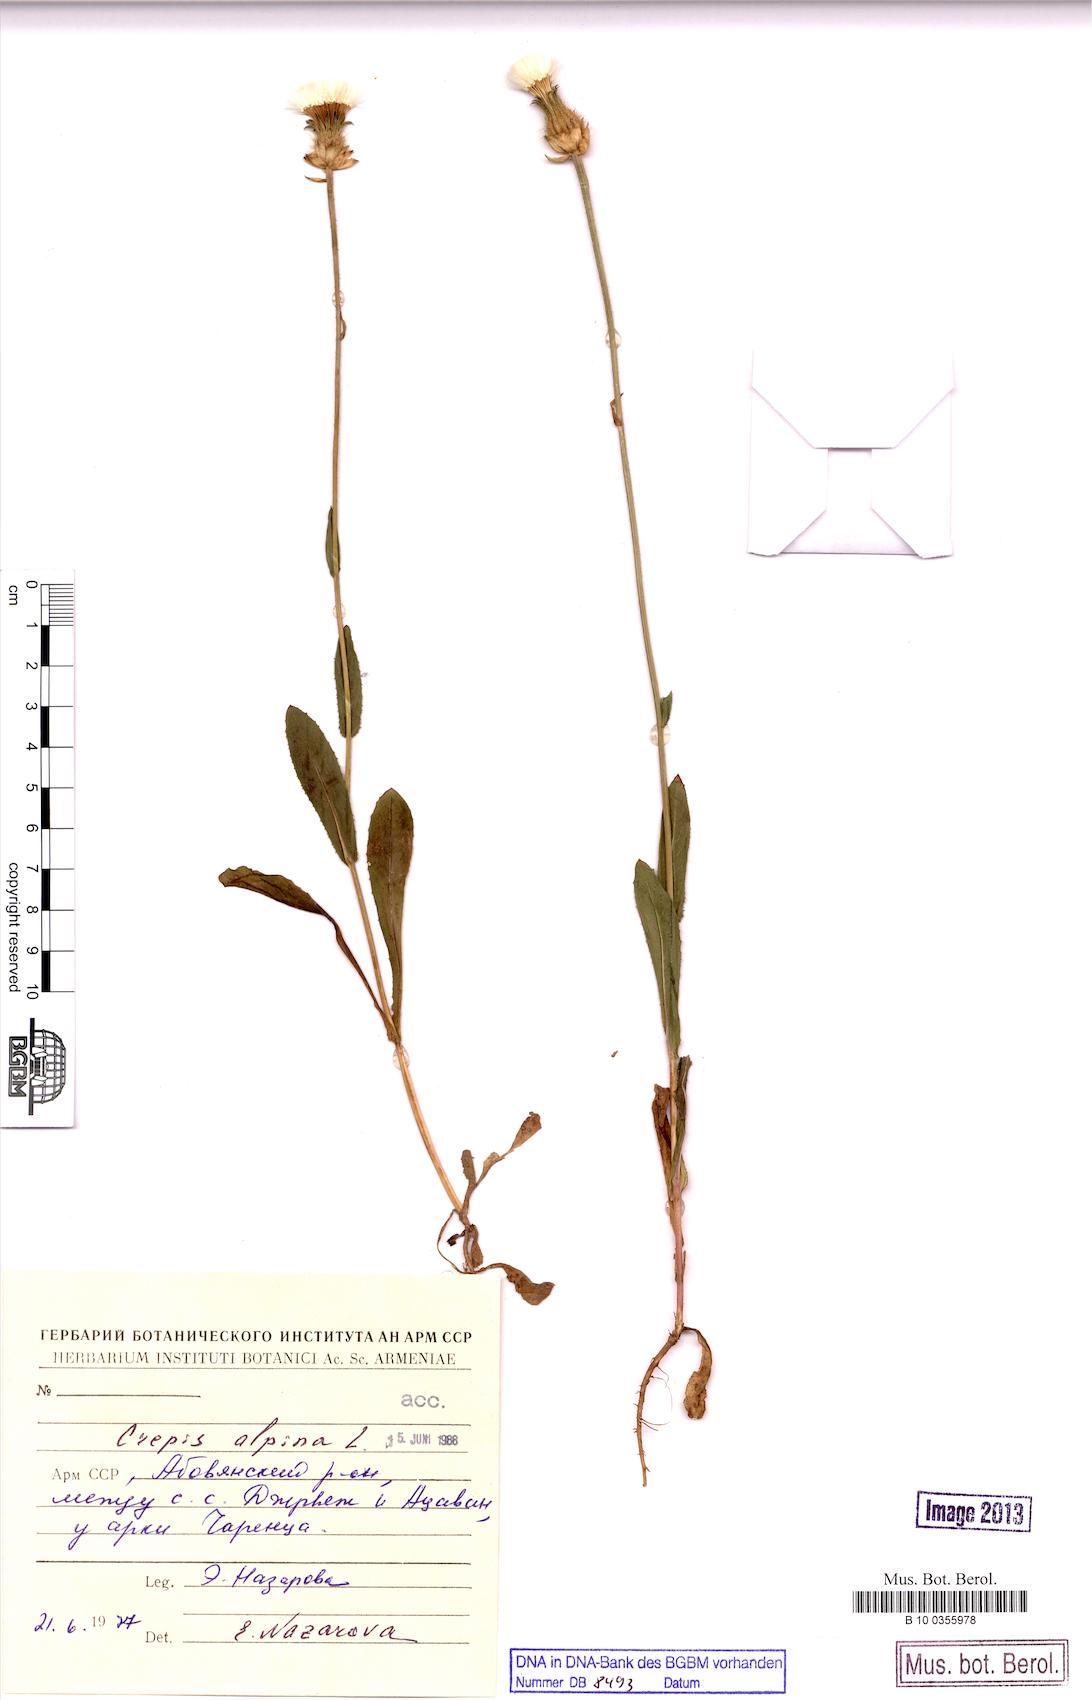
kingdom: Plantae
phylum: Tracheophyta
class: Magnoliopsida
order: Asterales
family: Asteraceae
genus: Crepis
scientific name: Crepis alpina
